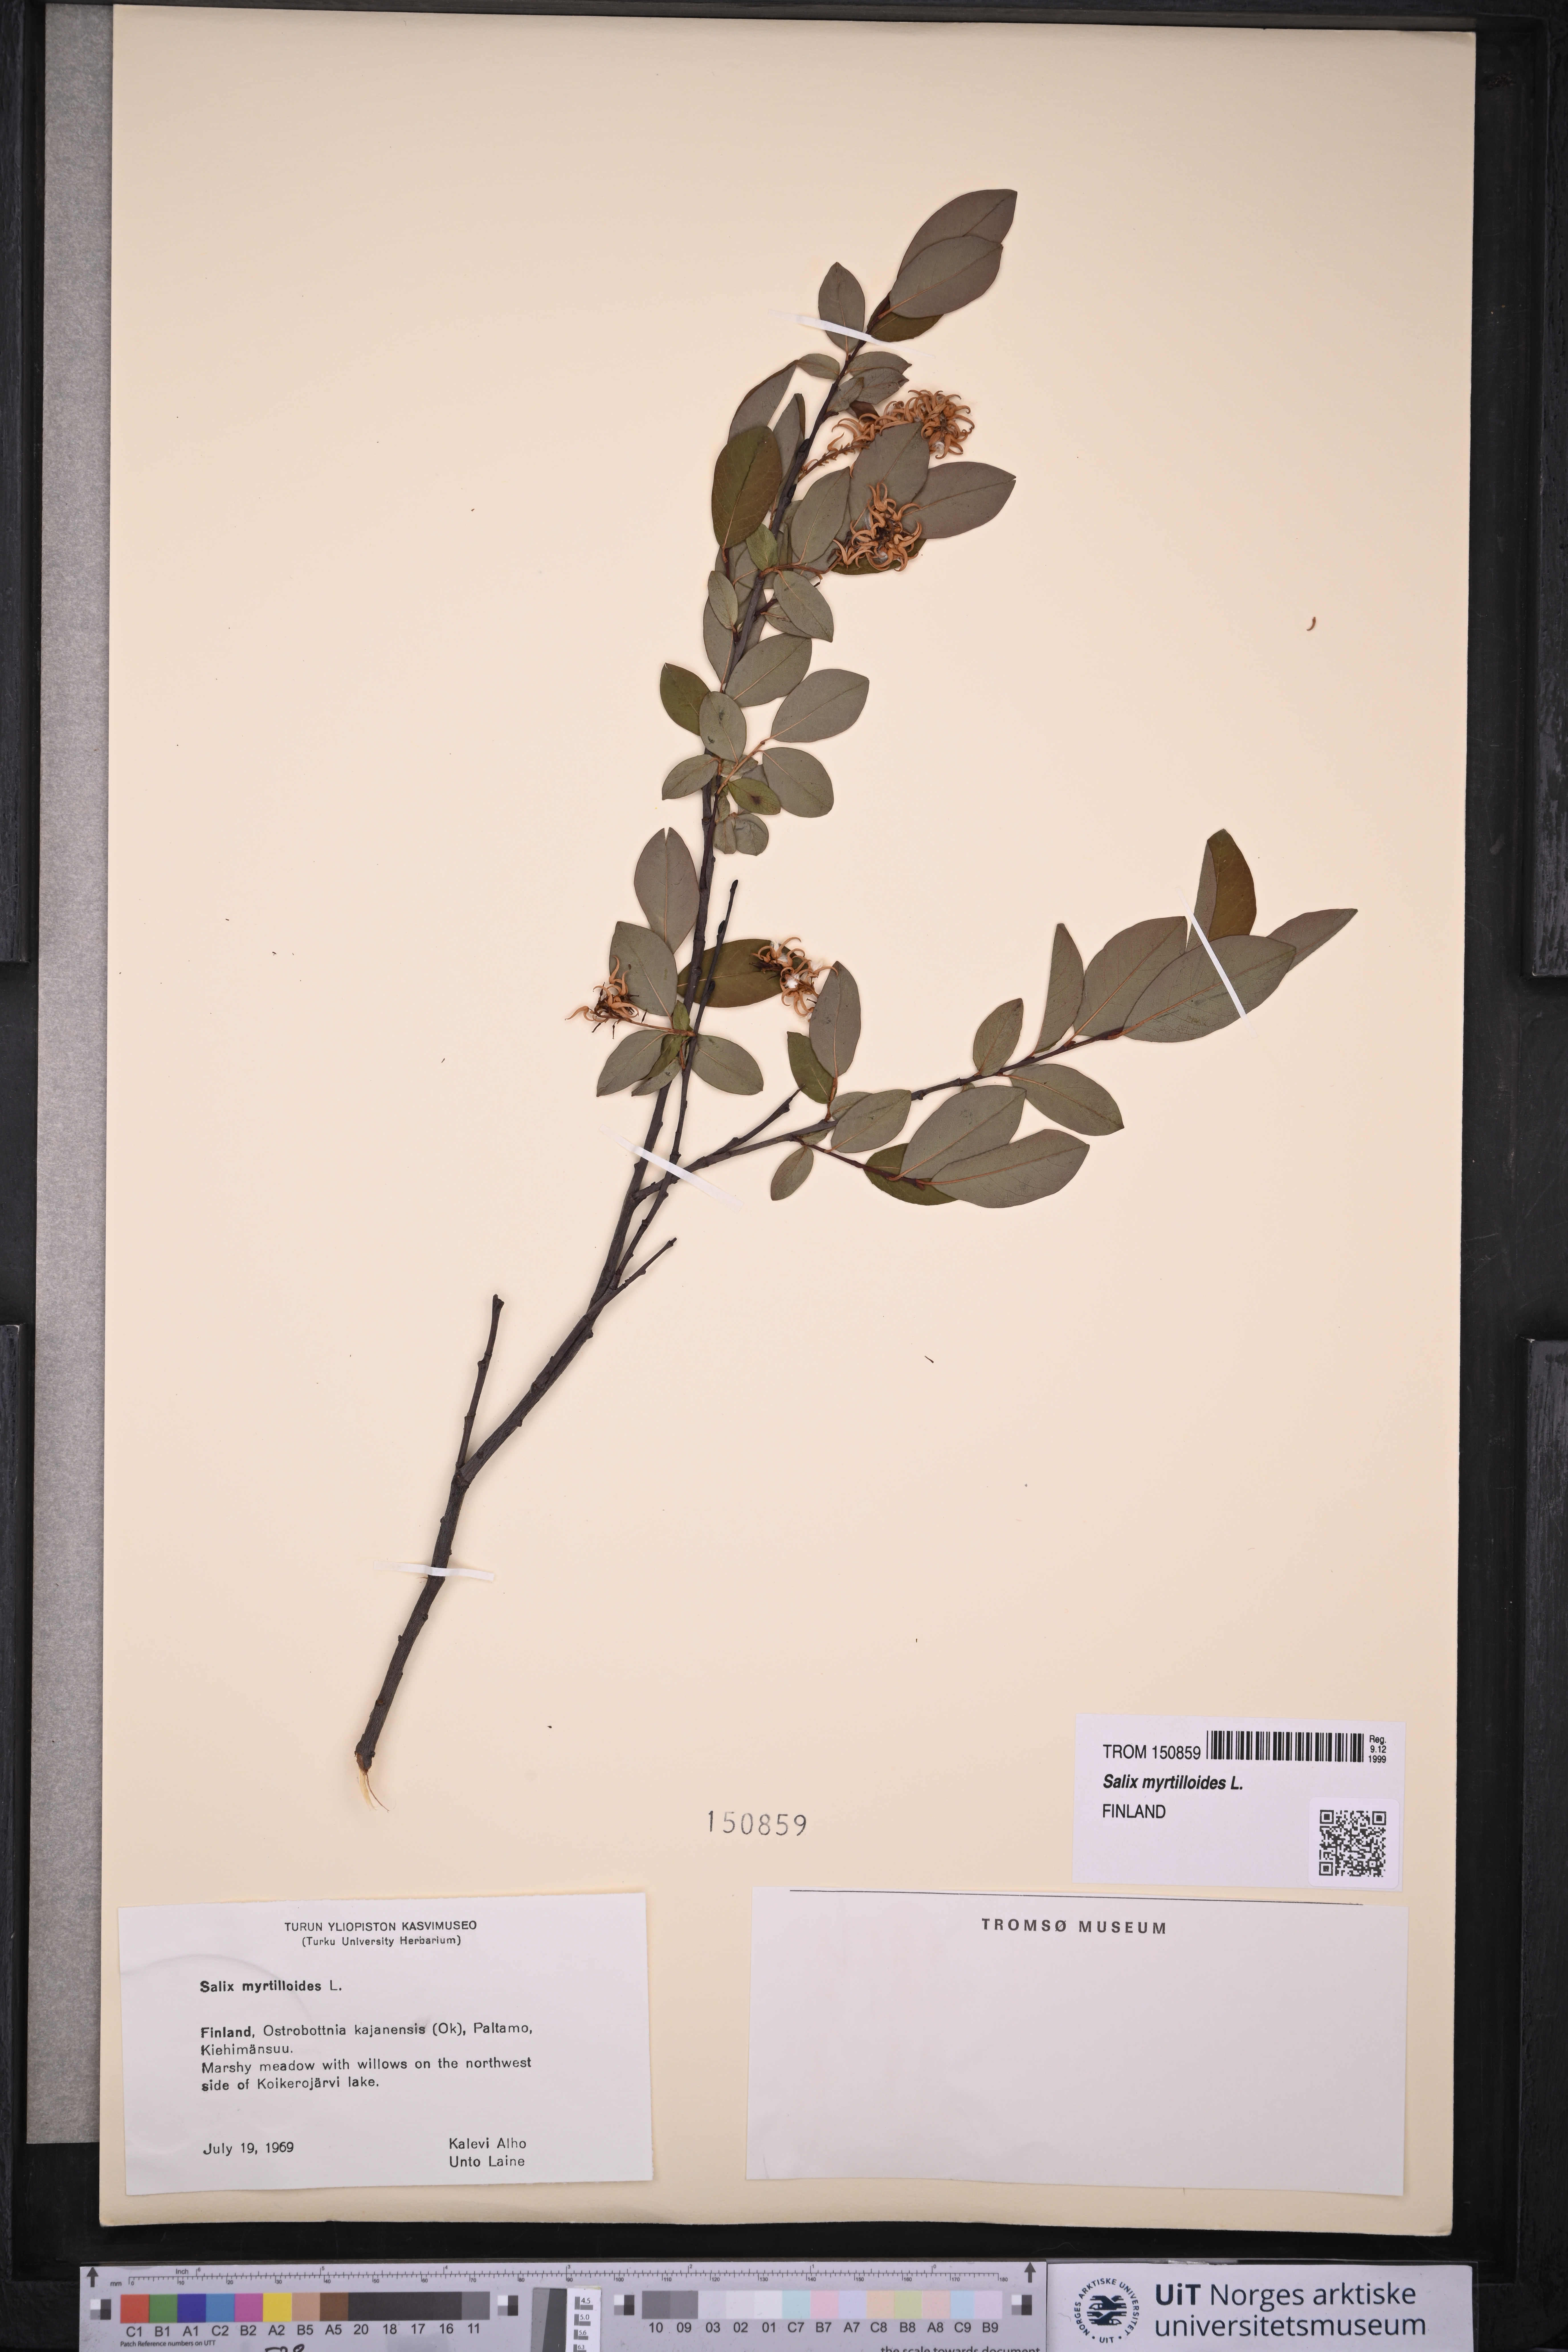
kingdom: Plantae
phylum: Tracheophyta
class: Magnoliopsida
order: Malpighiales
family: Salicaceae
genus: Salix
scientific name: Salix myrtilloides
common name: Myrtle-leaved willow
